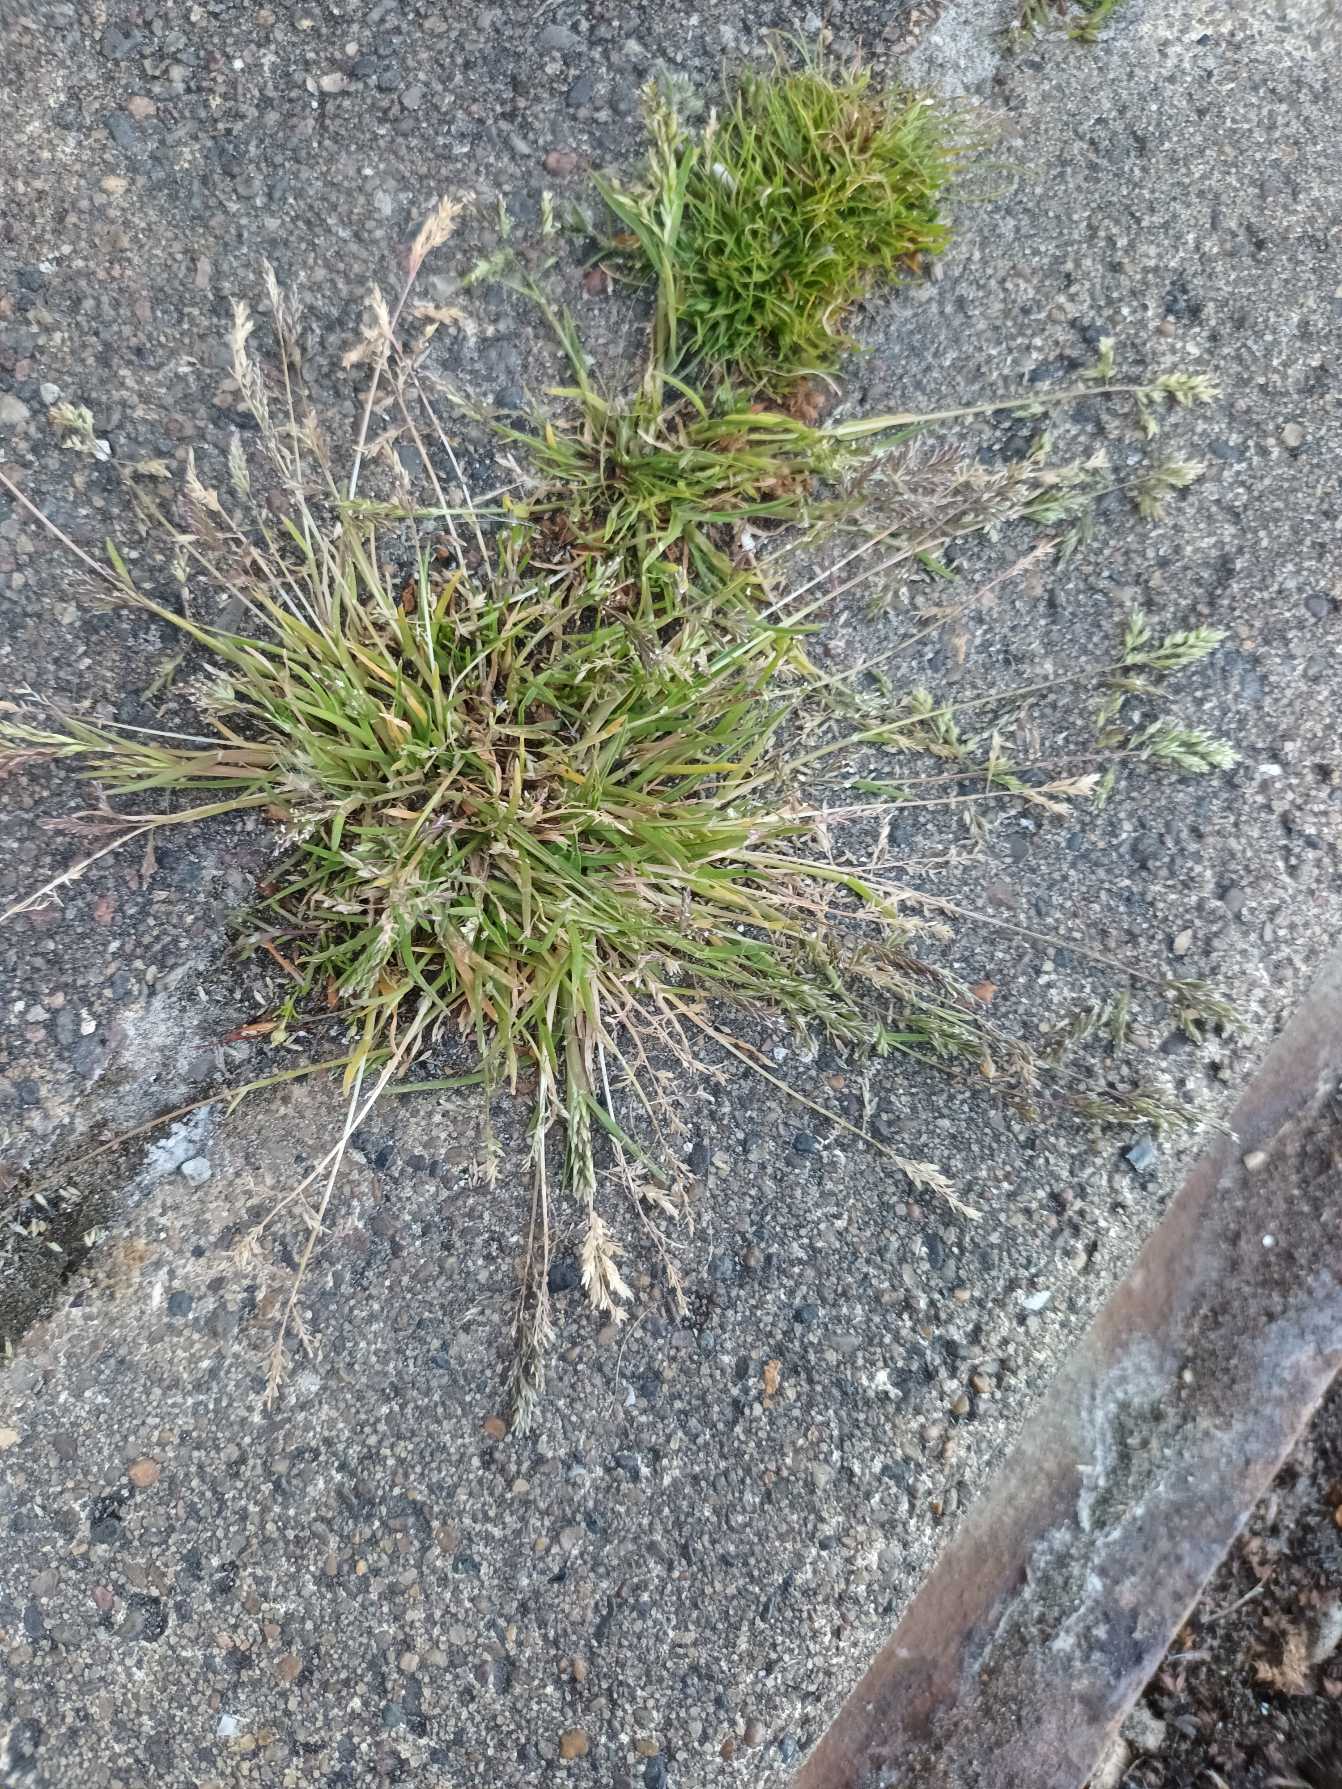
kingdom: Plantae
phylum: Tracheophyta
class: Liliopsida
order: Poales
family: Poaceae
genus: Poa
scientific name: Poa annua
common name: Enårig rapgræs
